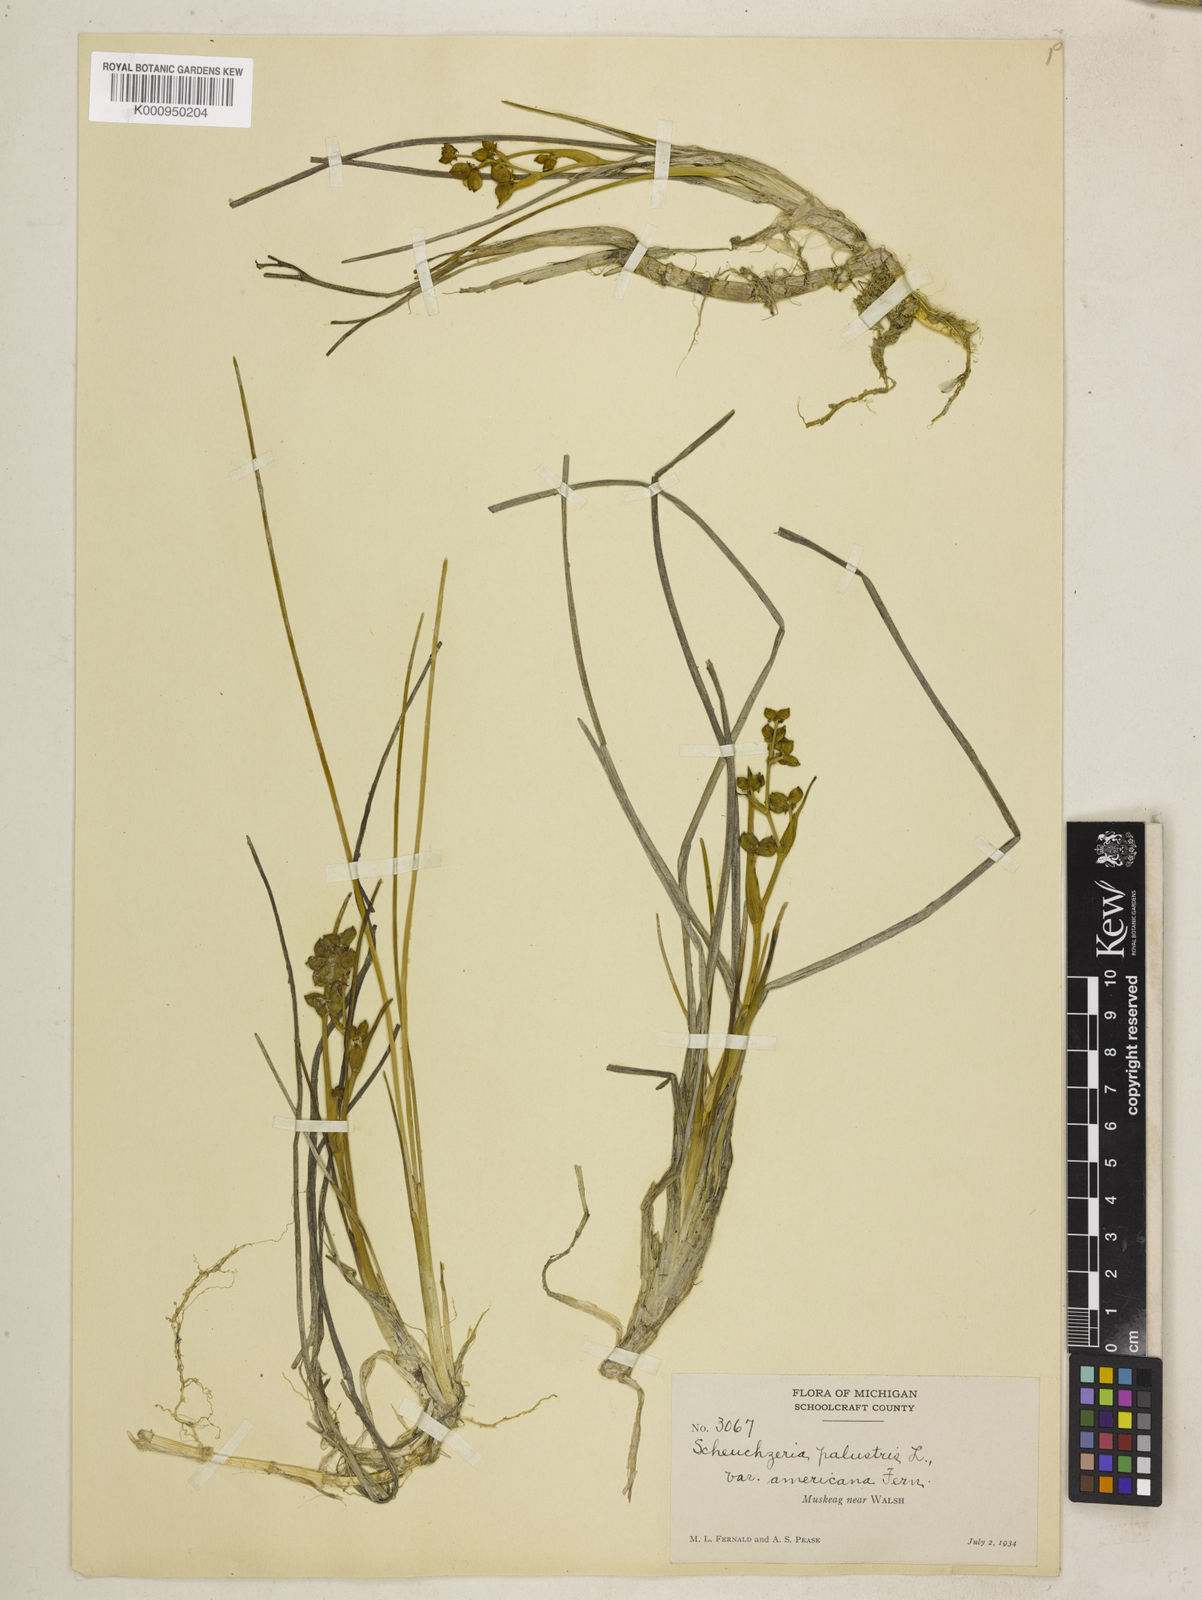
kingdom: Plantae
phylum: Tracheophyta
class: Liliopsida
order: Alismatales
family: Scheuchzeriaceae
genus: Scheuchzeria
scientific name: Scheuchzeria palustris
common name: Rannoch-rush
